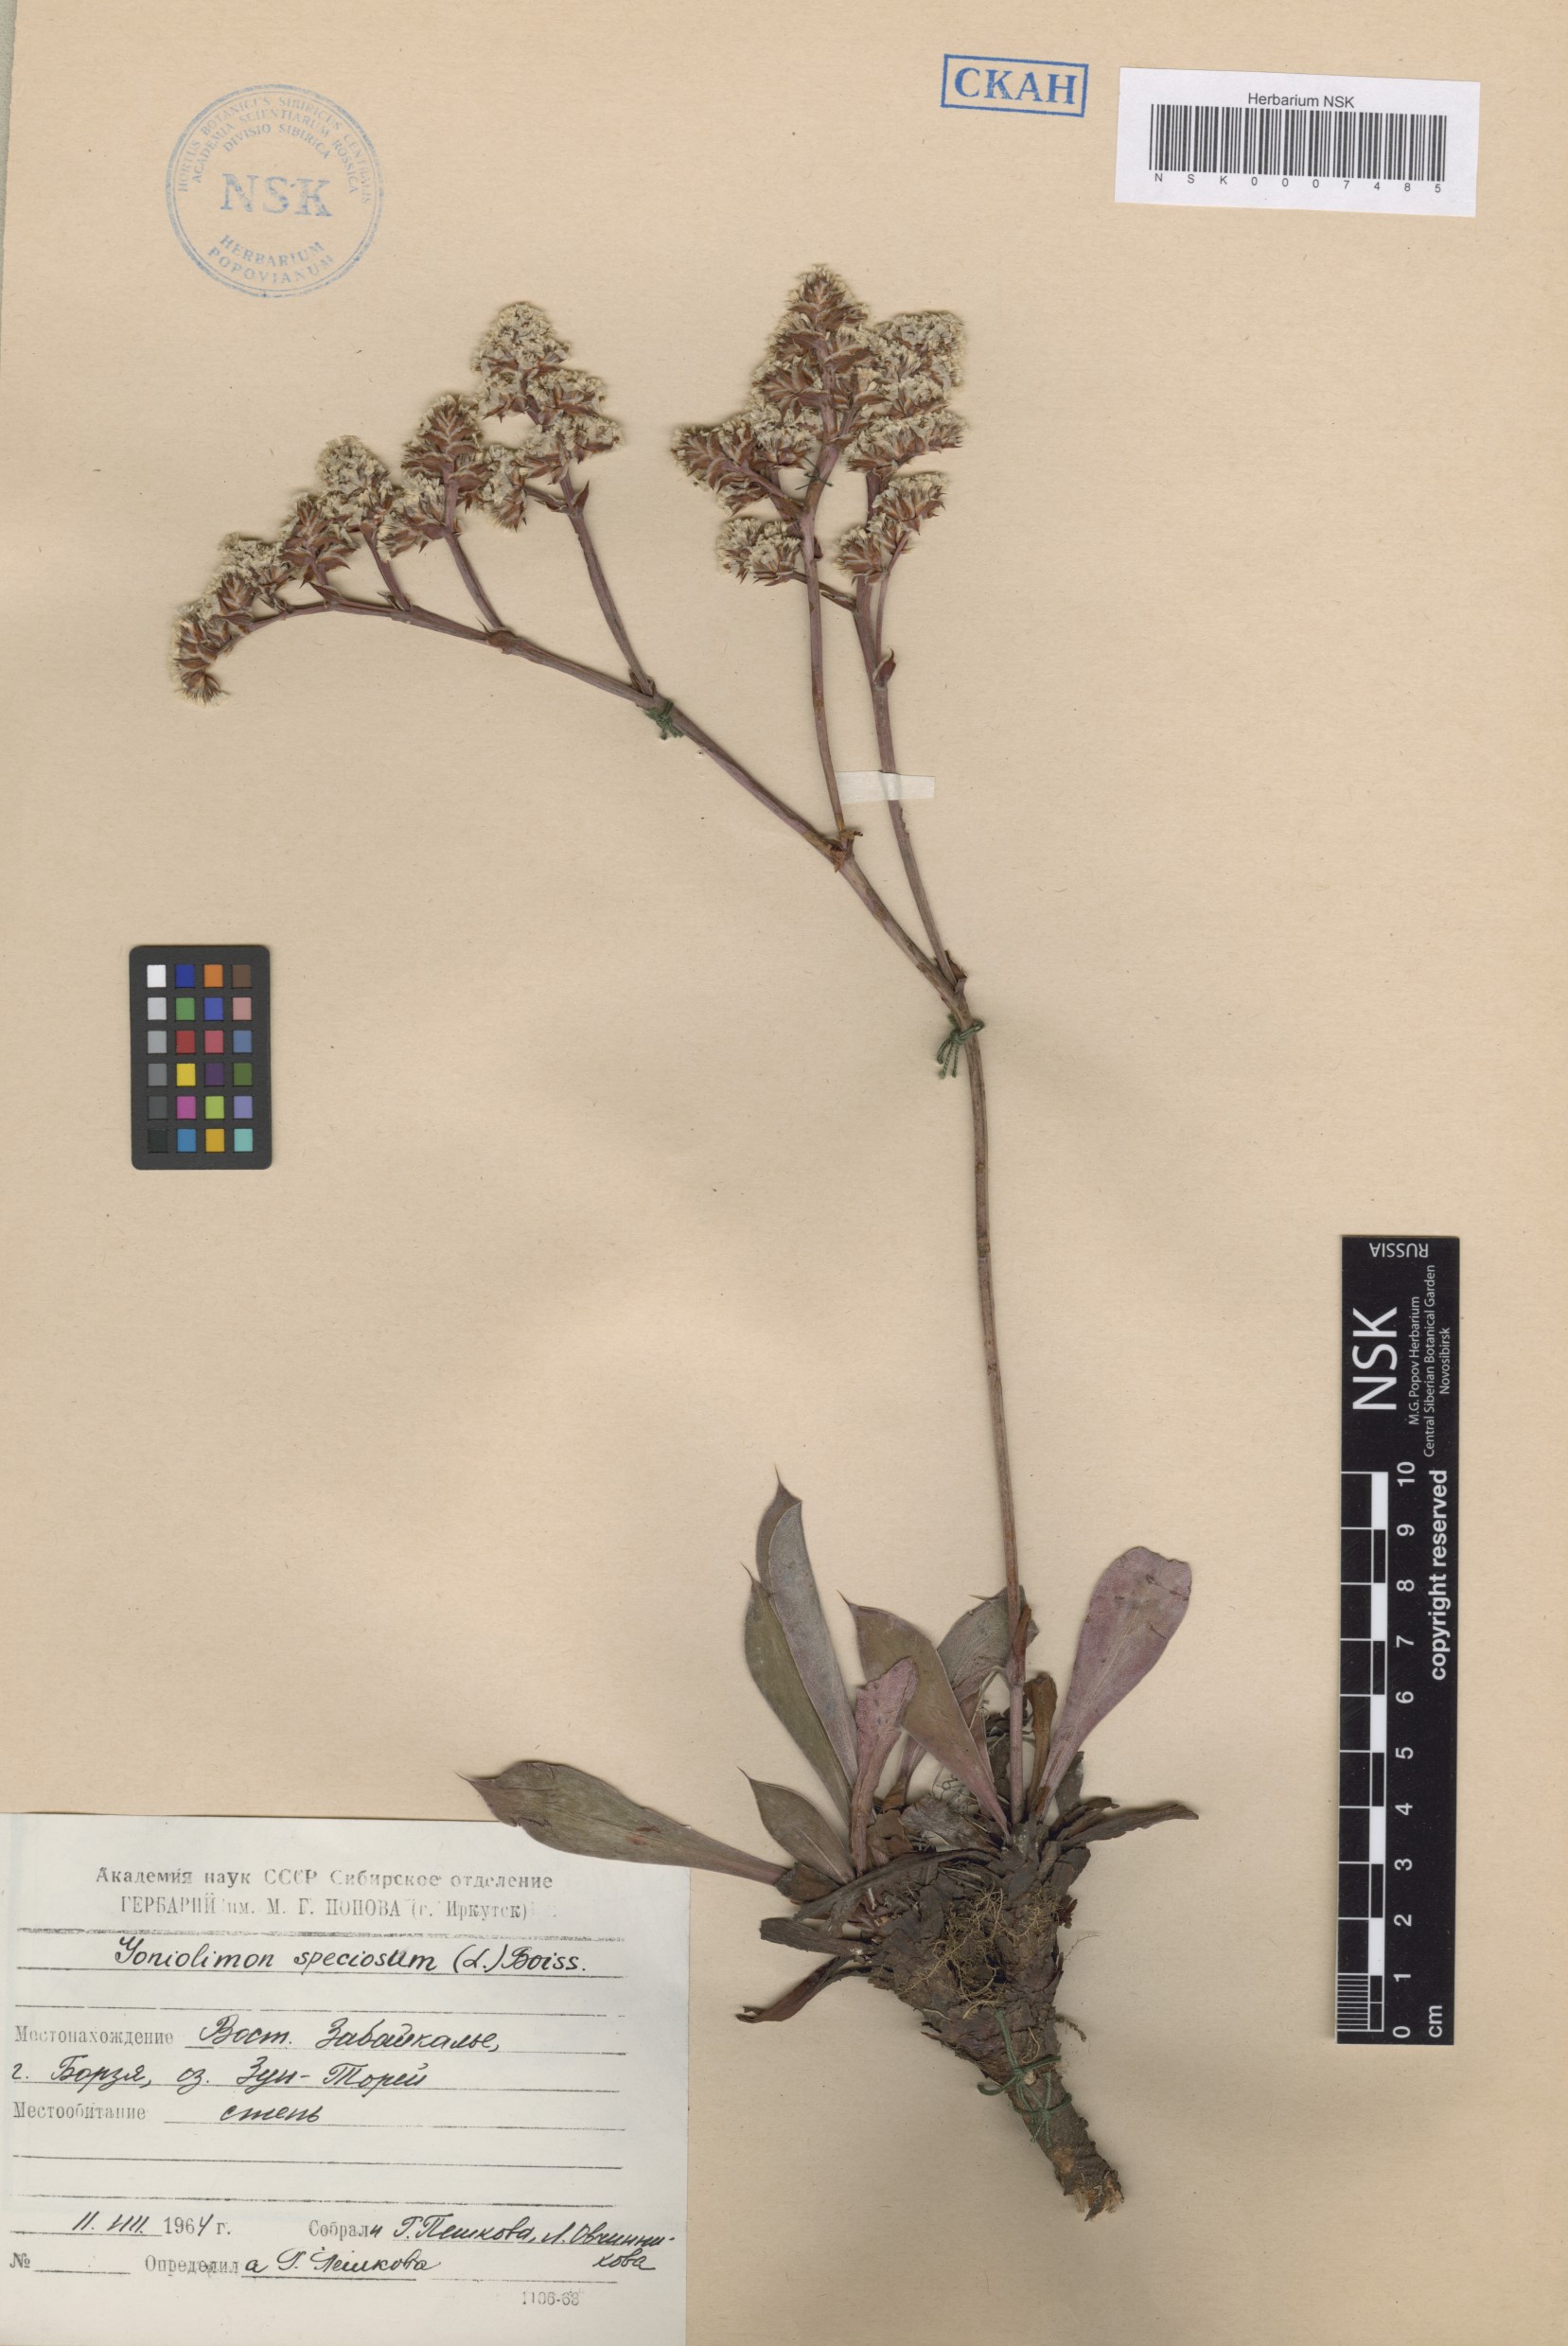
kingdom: Plantae
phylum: Tracheophyta
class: Magnoliopsida
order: Caryophyllales
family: Plumbaginaceae
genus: Goniolimon
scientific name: Goniolimon speciosum
